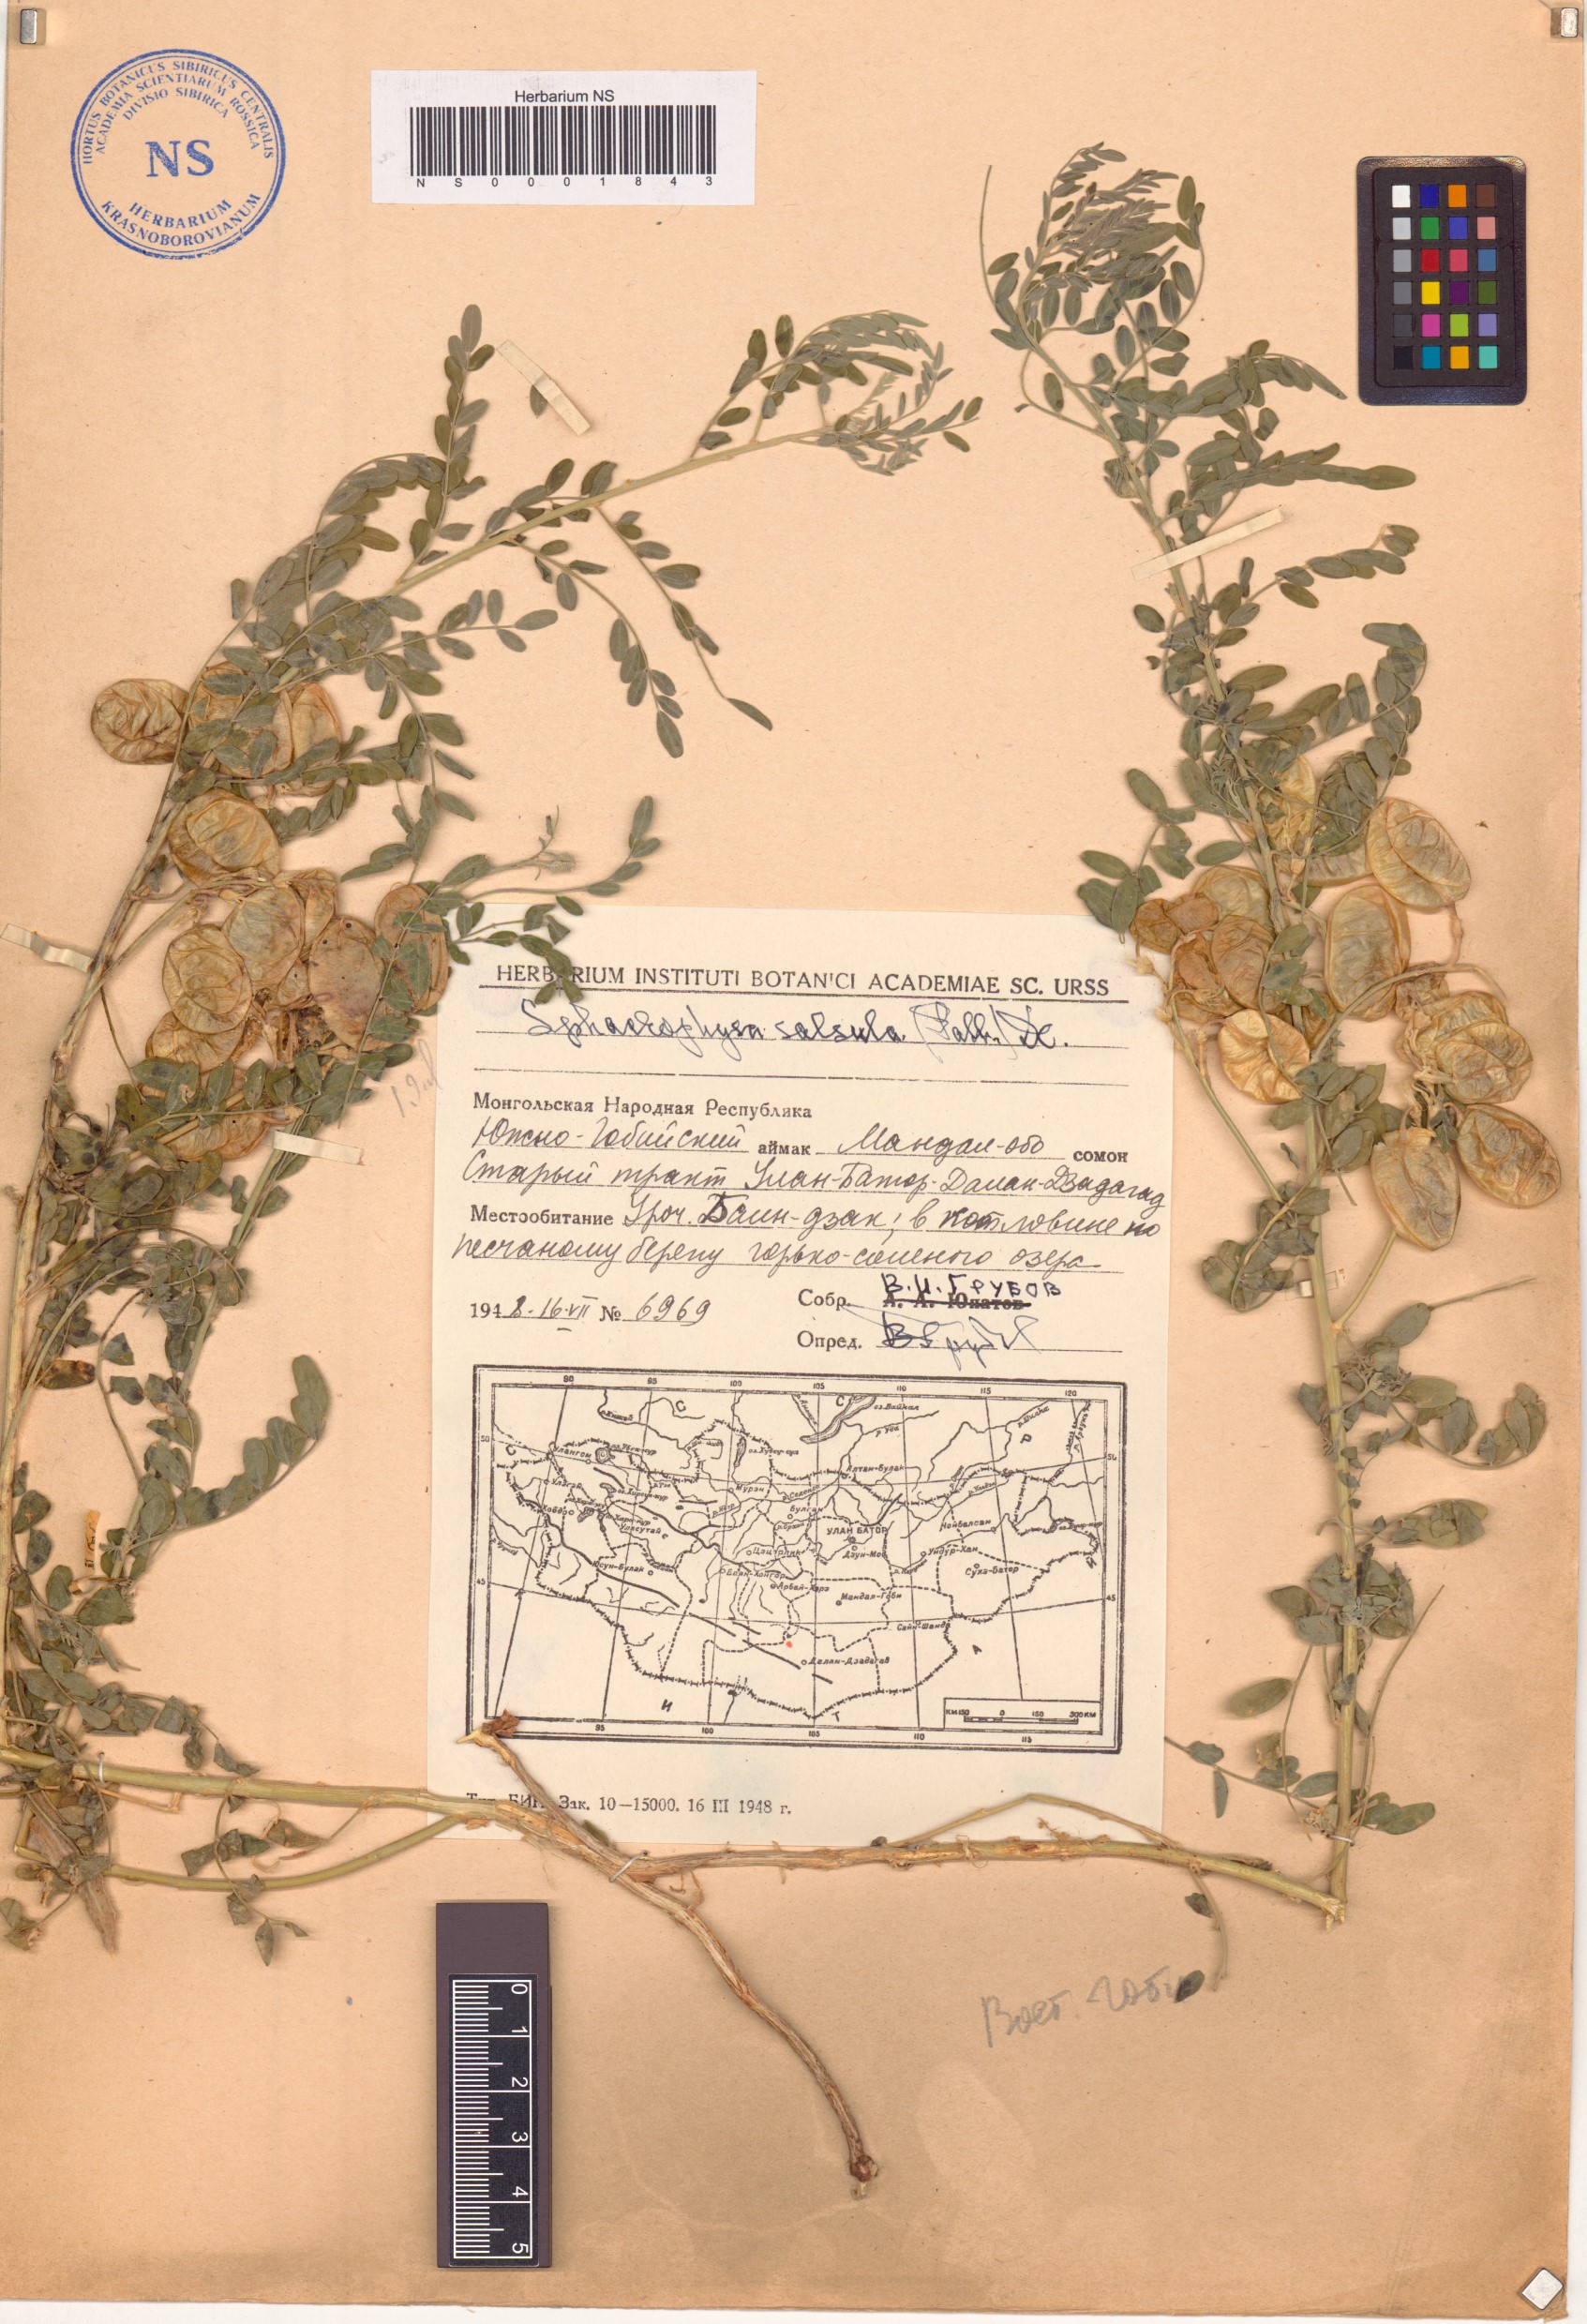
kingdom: Plantae
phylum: Tracheophyta
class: Magnoliopsida
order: Fabales
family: Fabaceae
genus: Sphaerophysa
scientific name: Sphaerophysa salsula
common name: Alkali swainsonpea
